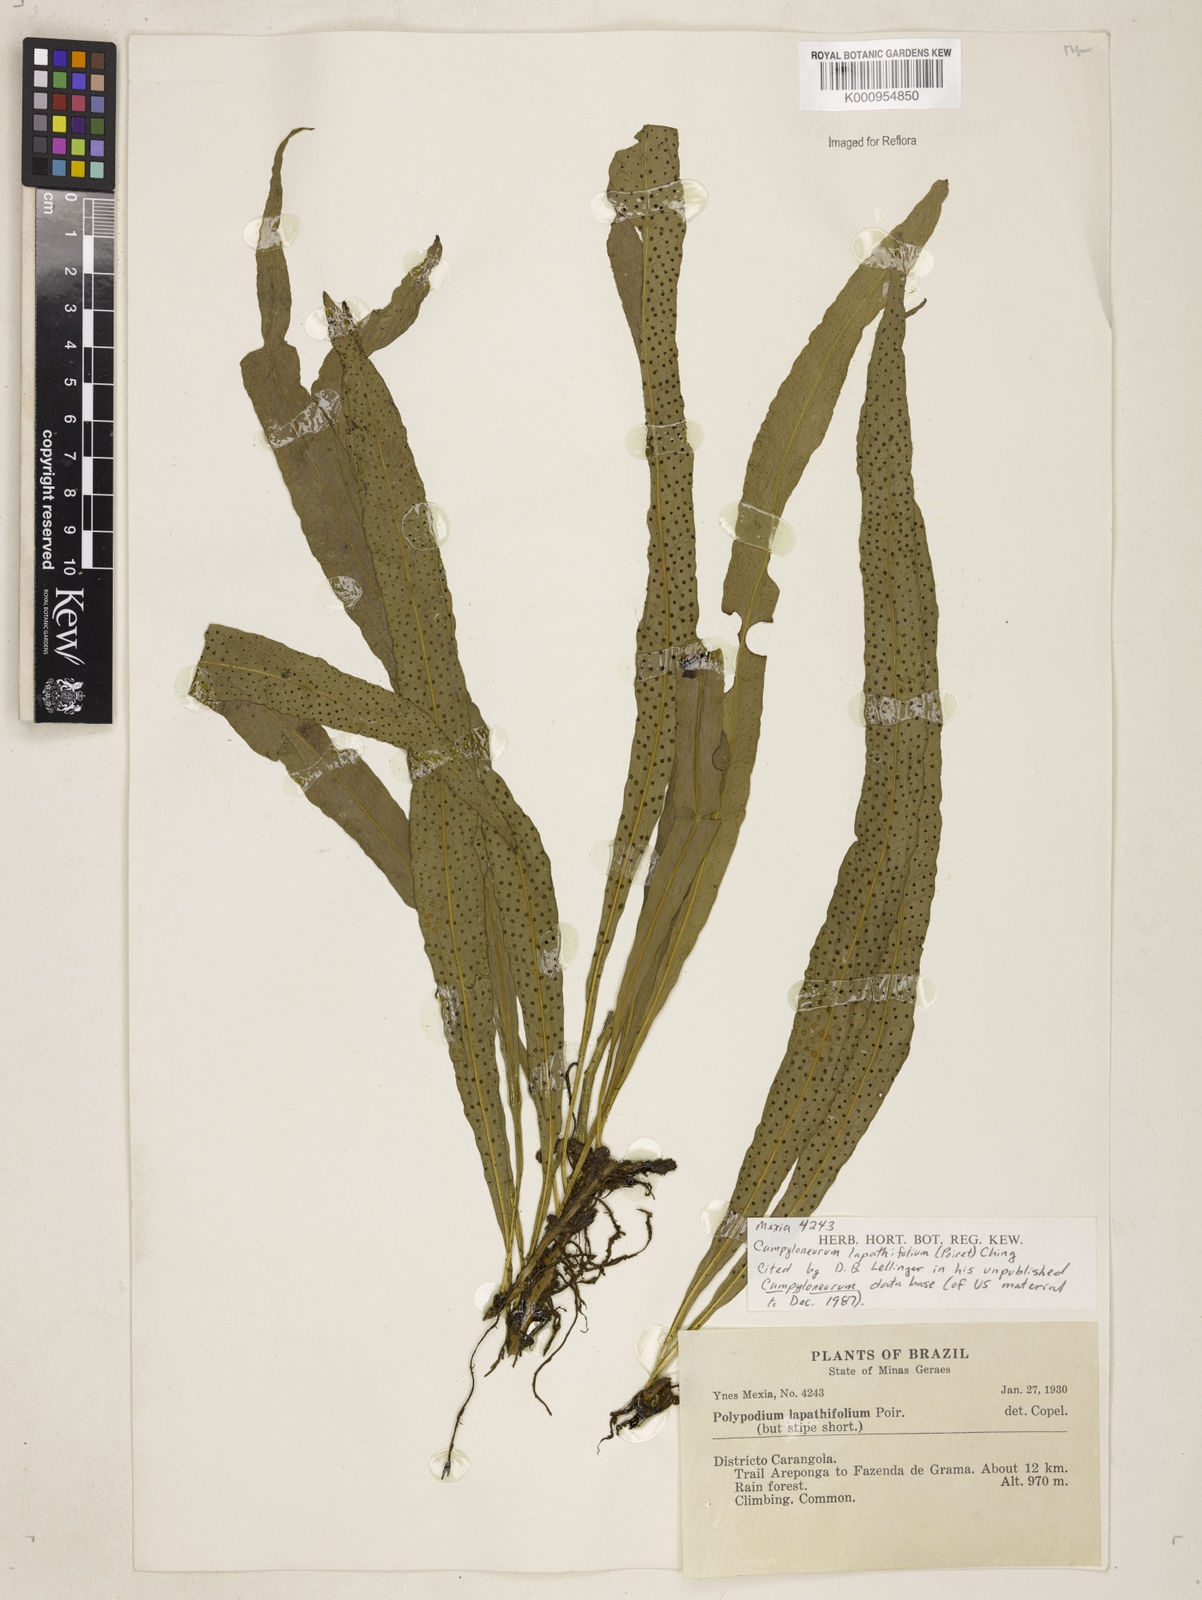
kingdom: Plantae
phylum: Tracheophyta
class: Polypodiopsida
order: Polypodiales
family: Polypodiaceae
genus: Campyloneurum
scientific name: Campyloneurum repens
